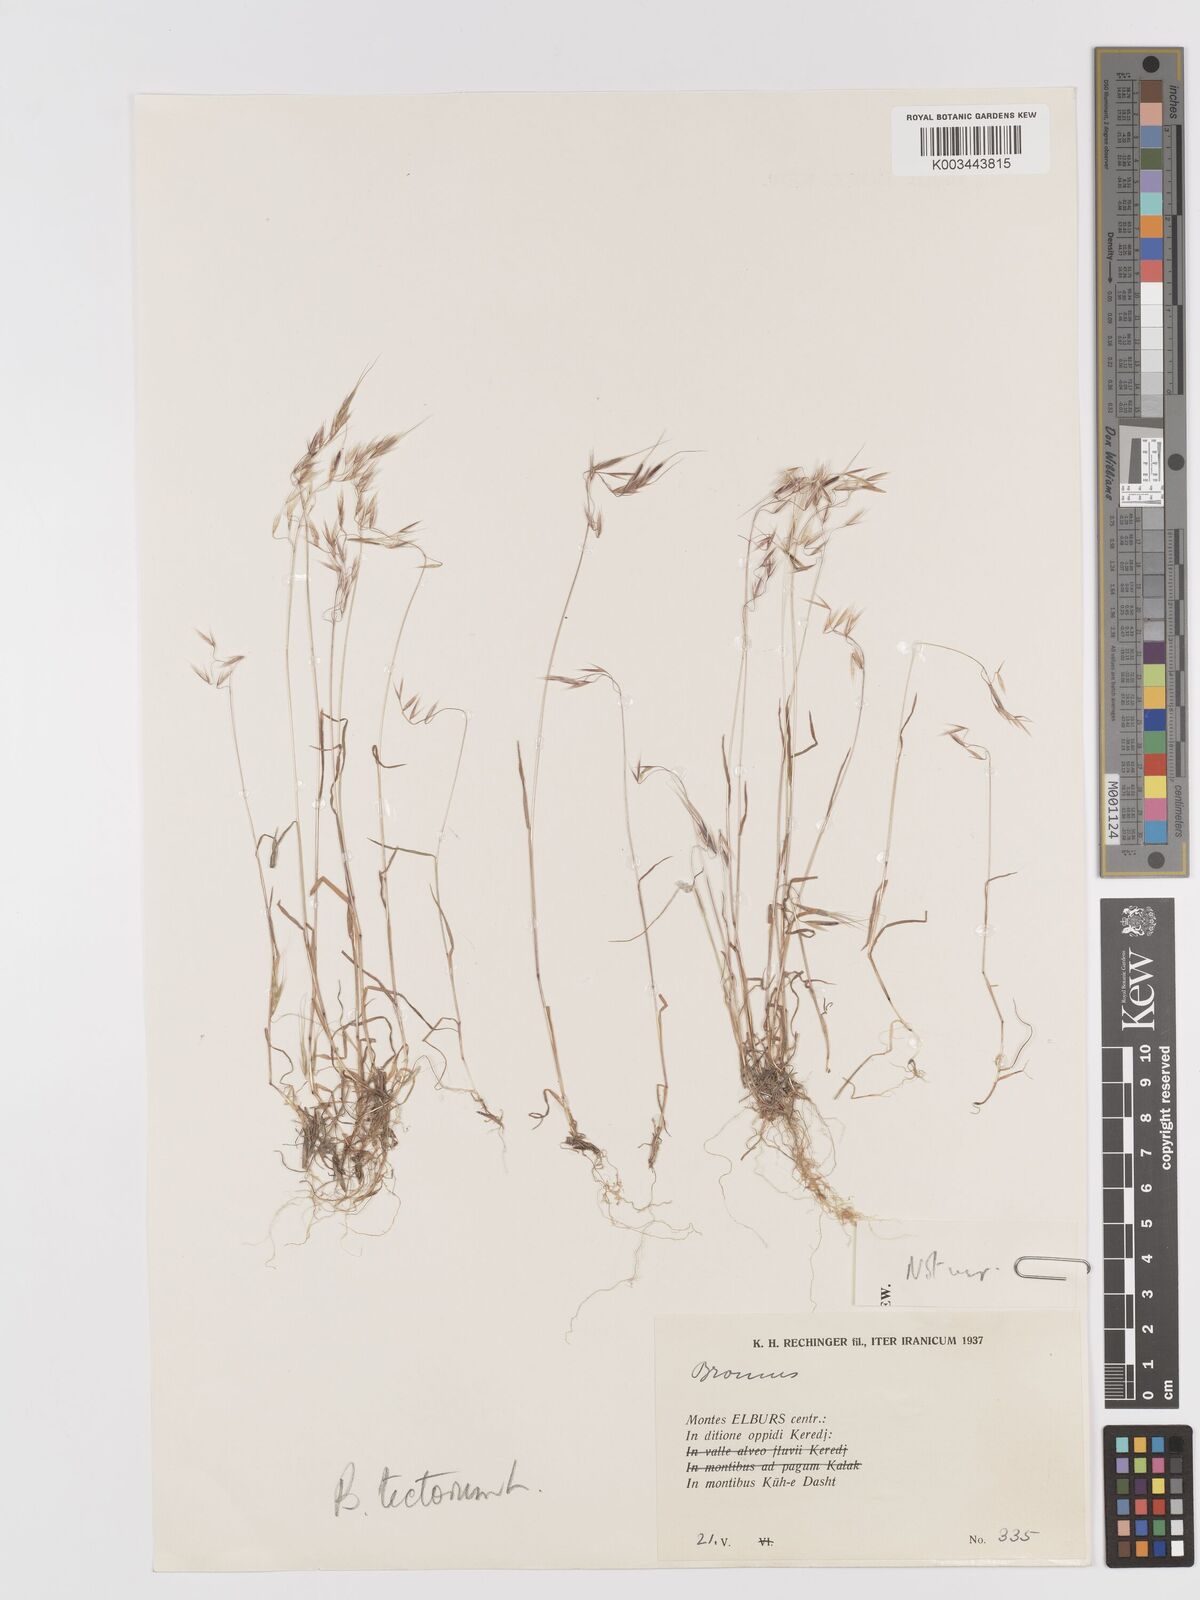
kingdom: Plantae
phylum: Tracheophyta
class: Liliopsida
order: Poales
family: Poaceae
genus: Bromus
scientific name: Bromus tectorum
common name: Cheatgrass
